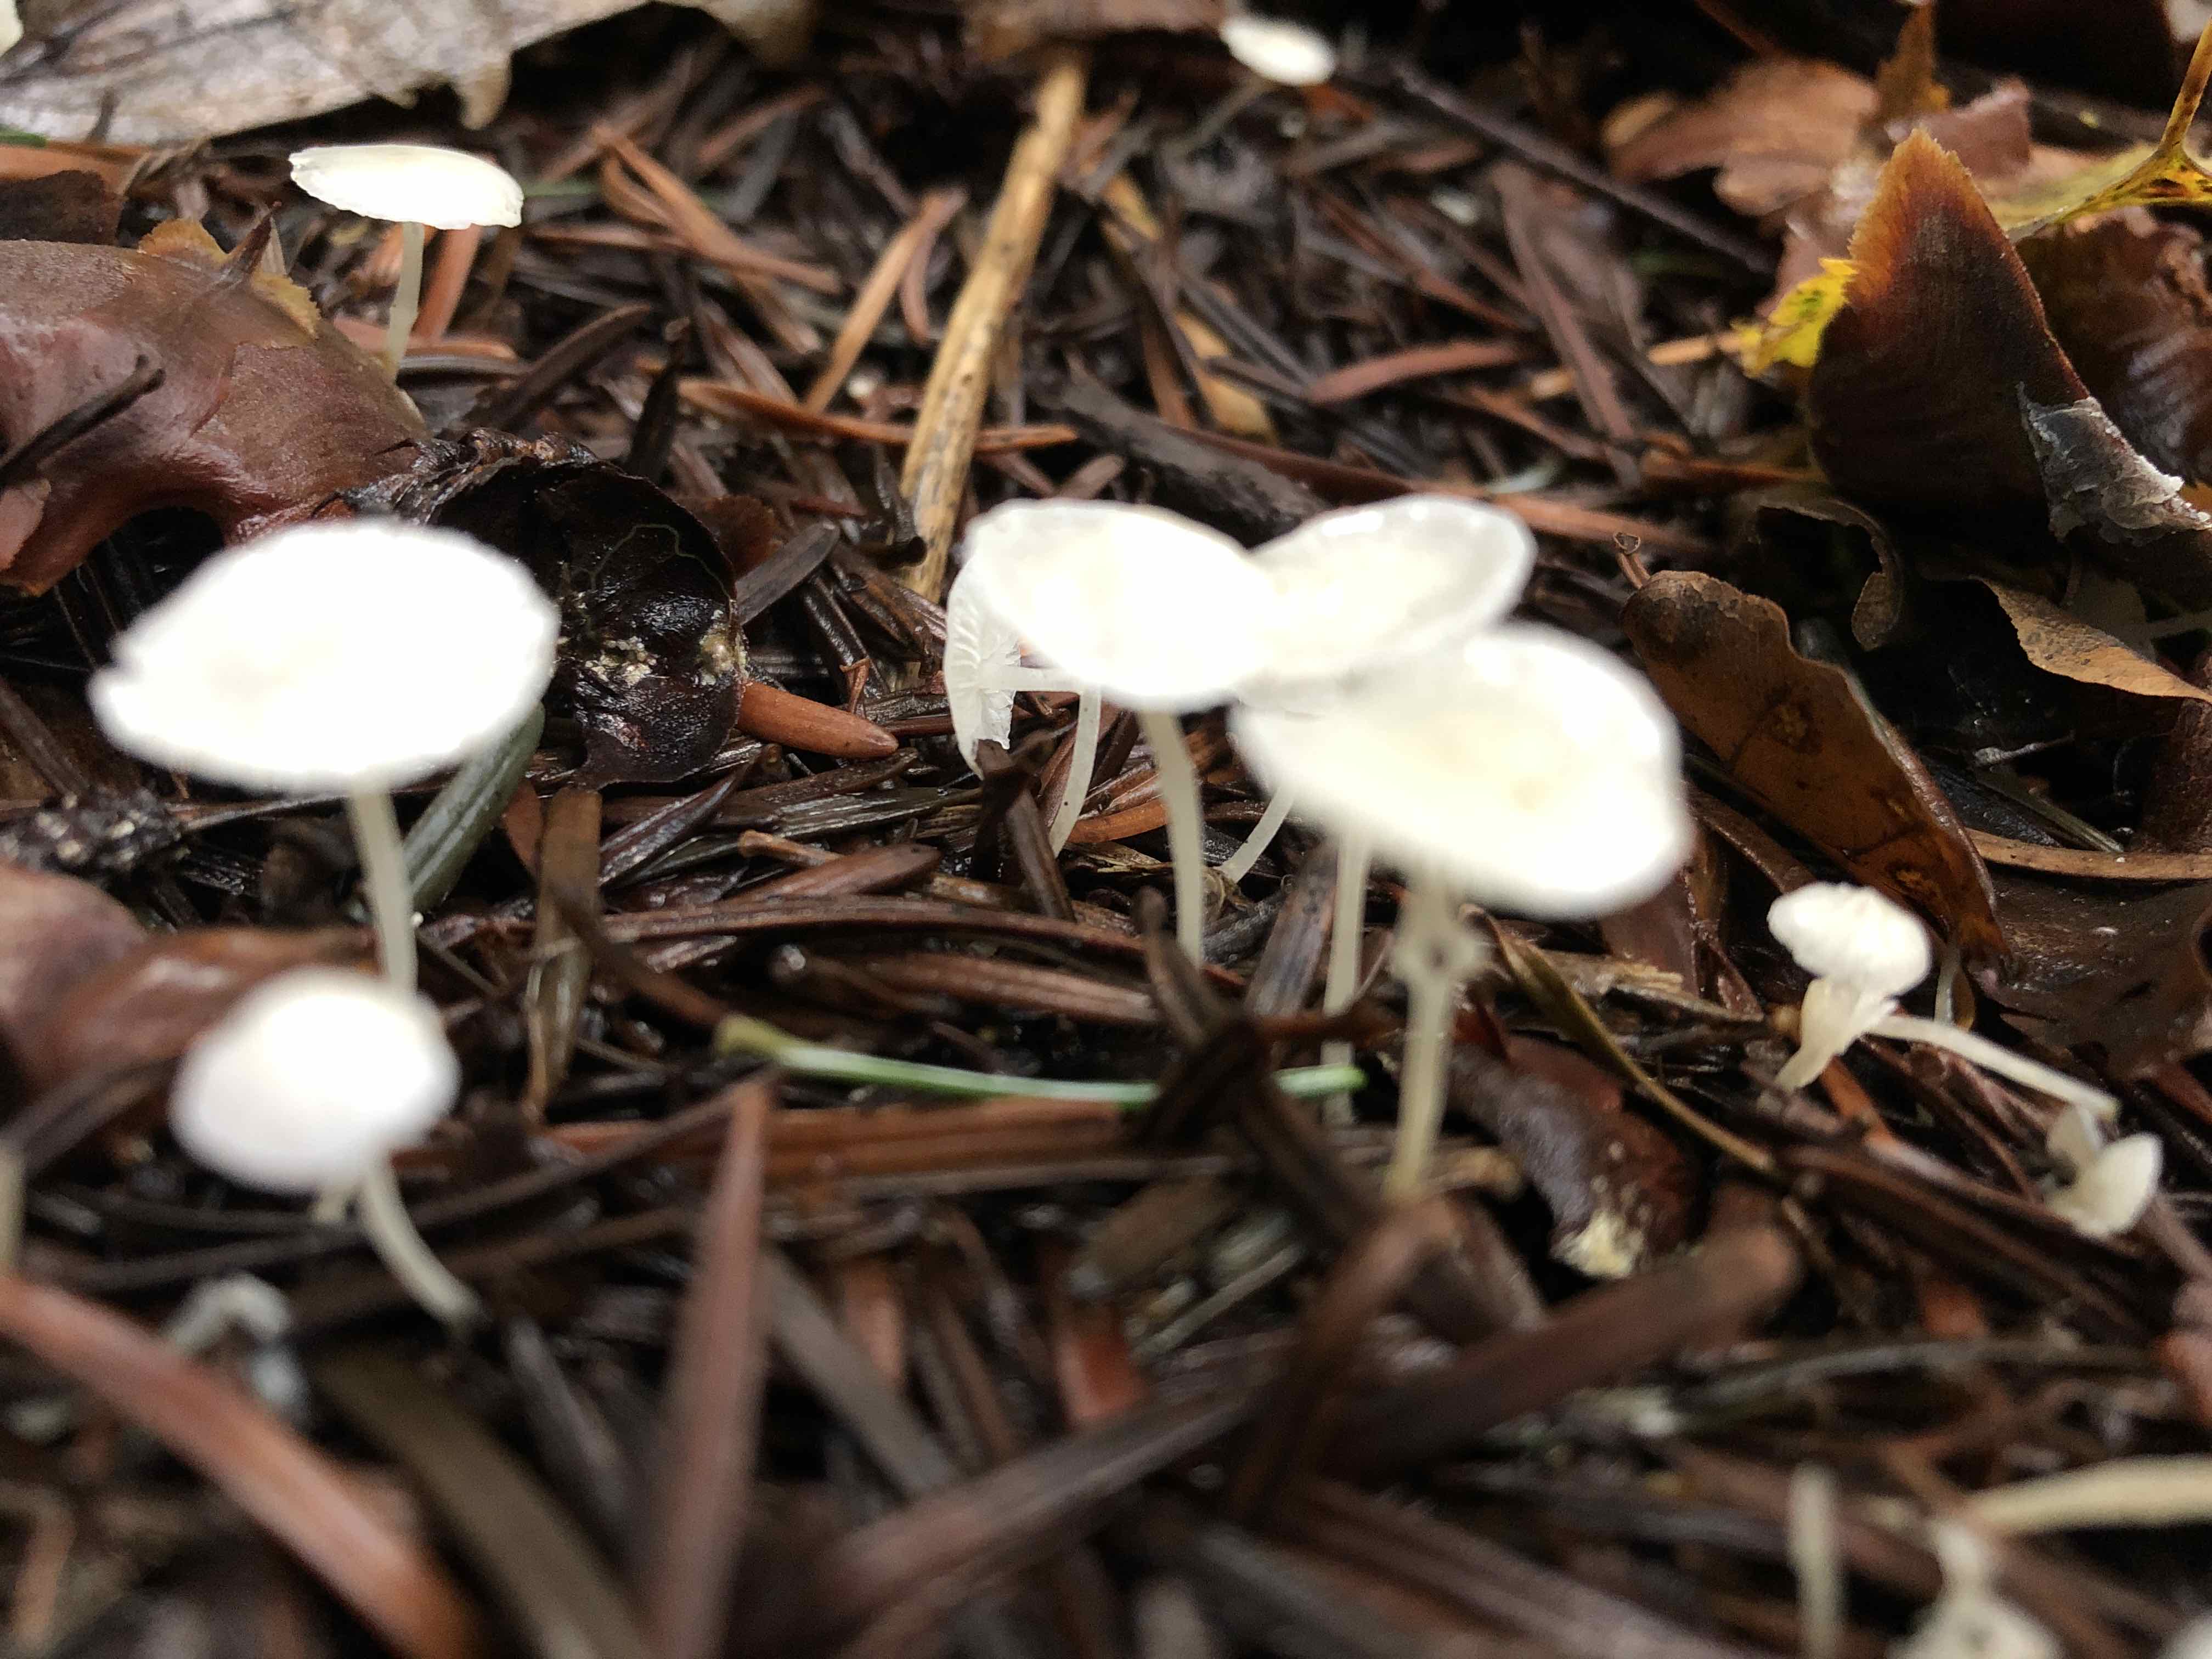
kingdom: Fungi
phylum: Basidiomycota
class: Agaricomycetes
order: Agaricales
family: Mycenaceae
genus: Hemimycena
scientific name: Hemimycena lactea
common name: mælkehvid huesvamp
